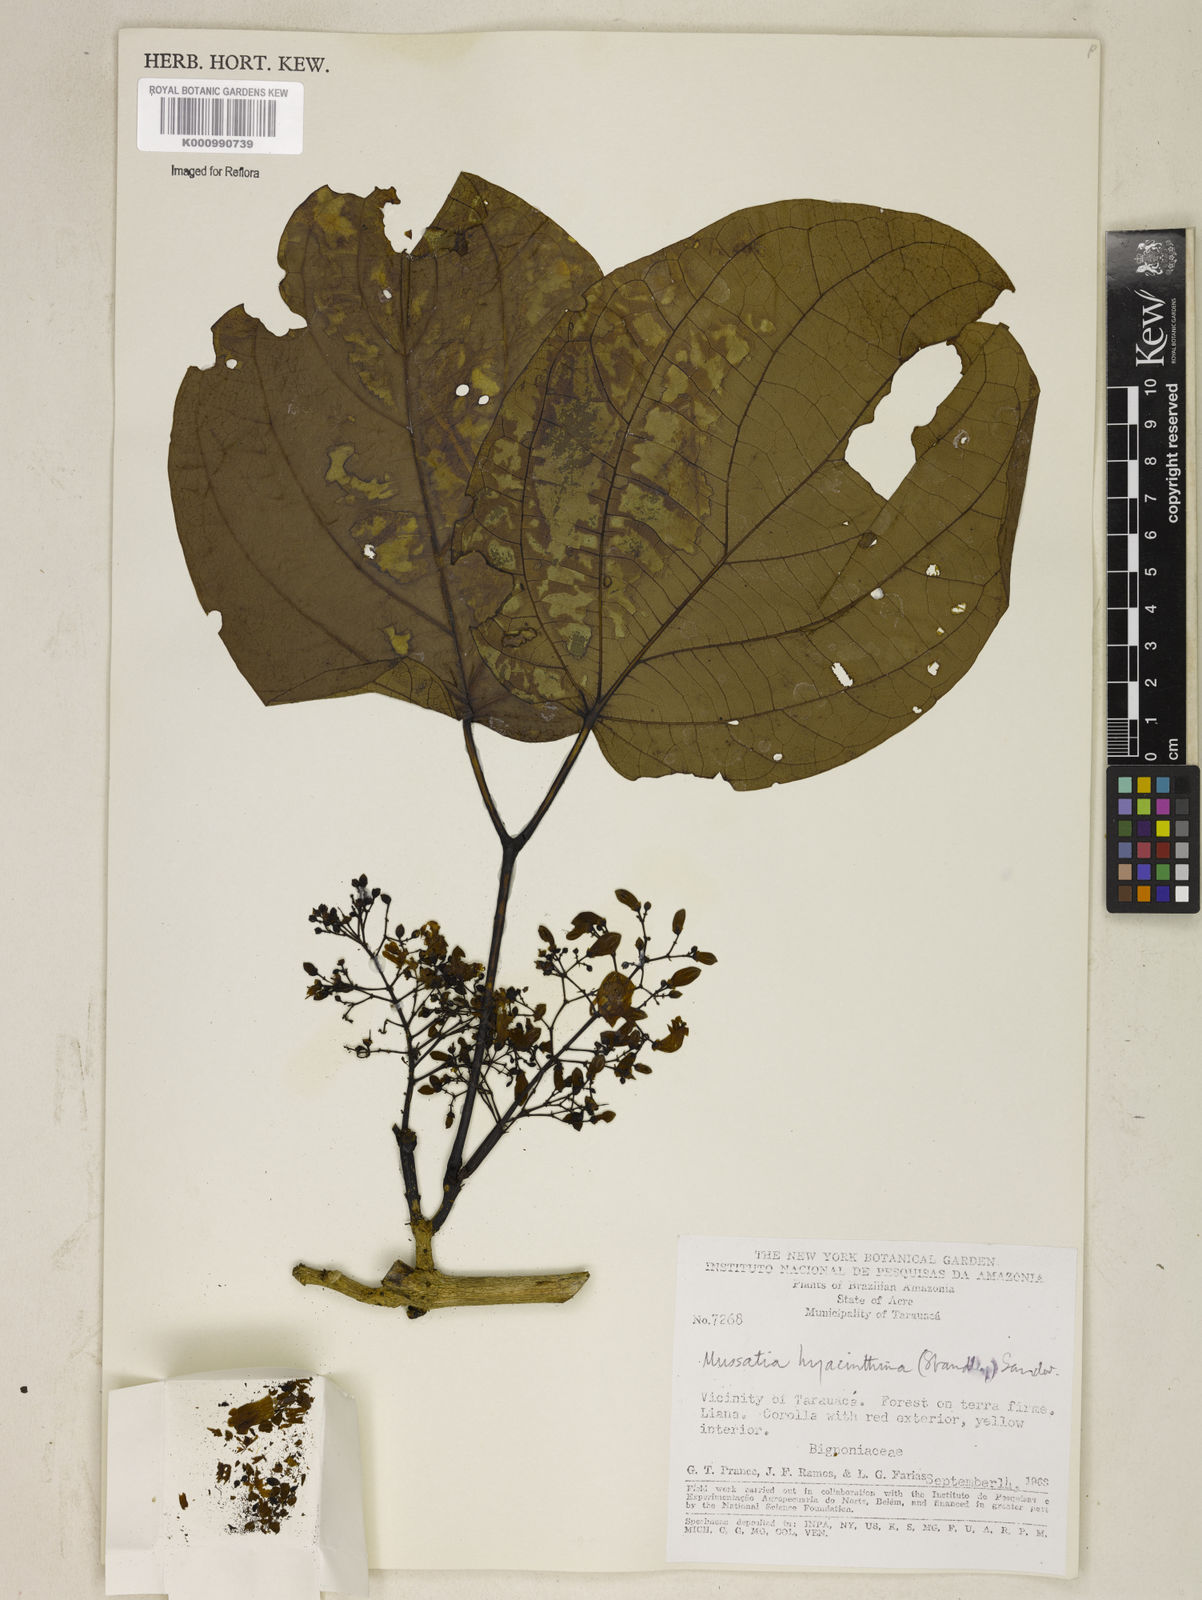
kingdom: Plantae
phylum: Tracheophyta
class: Magnoliopsida
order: Lamiales
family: Bignoniaceae
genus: Bignonia
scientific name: Bignonia hyacinthina
